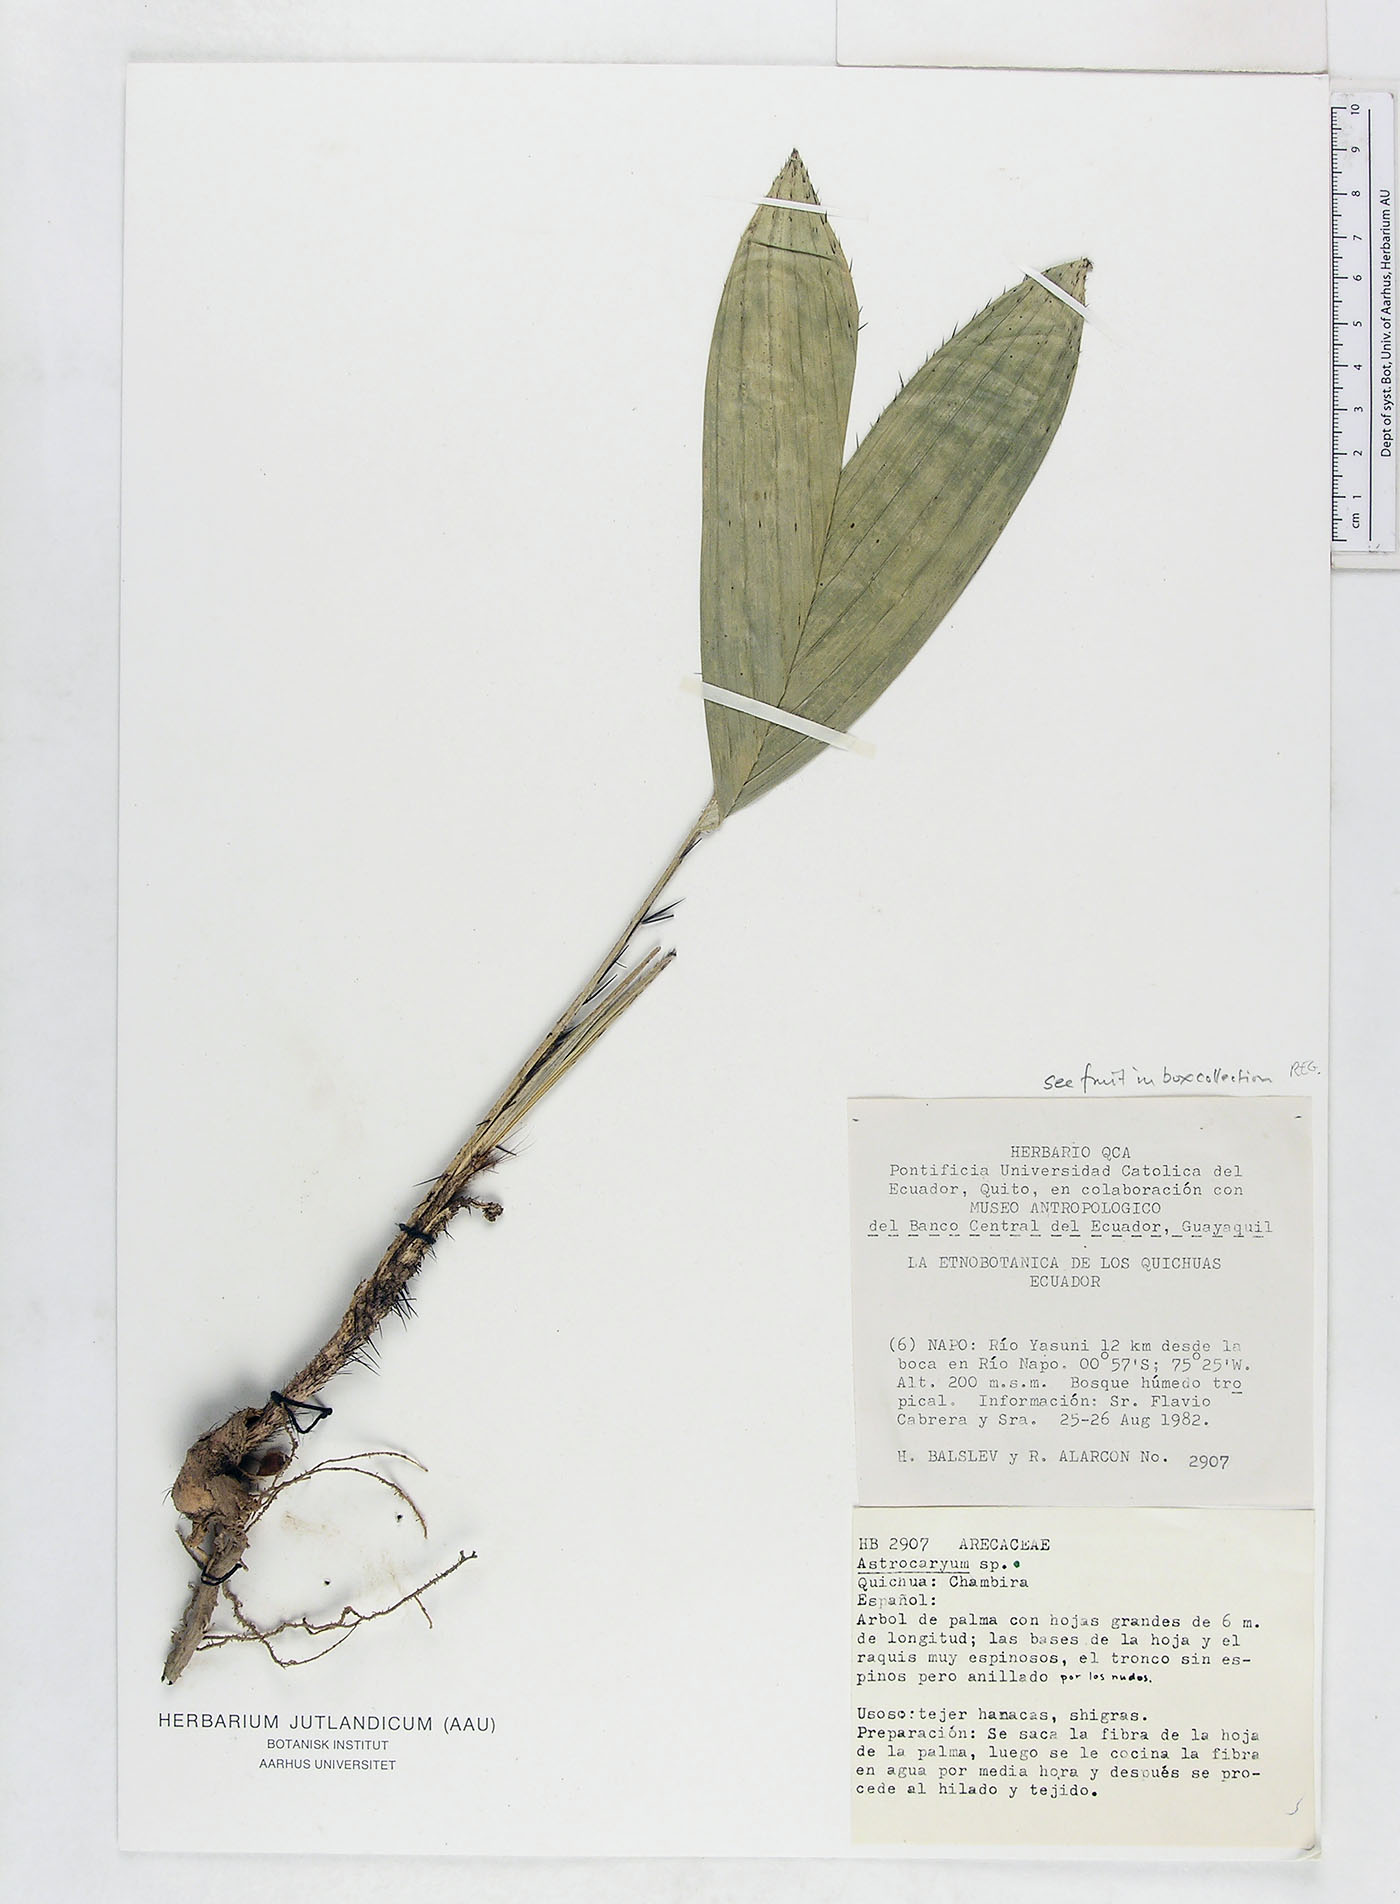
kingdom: Plantae
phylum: Tracheophyta
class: Liliopsida
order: Arecales
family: Arecaceae
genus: Astrocaryum
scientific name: Astrocaryum chambira
